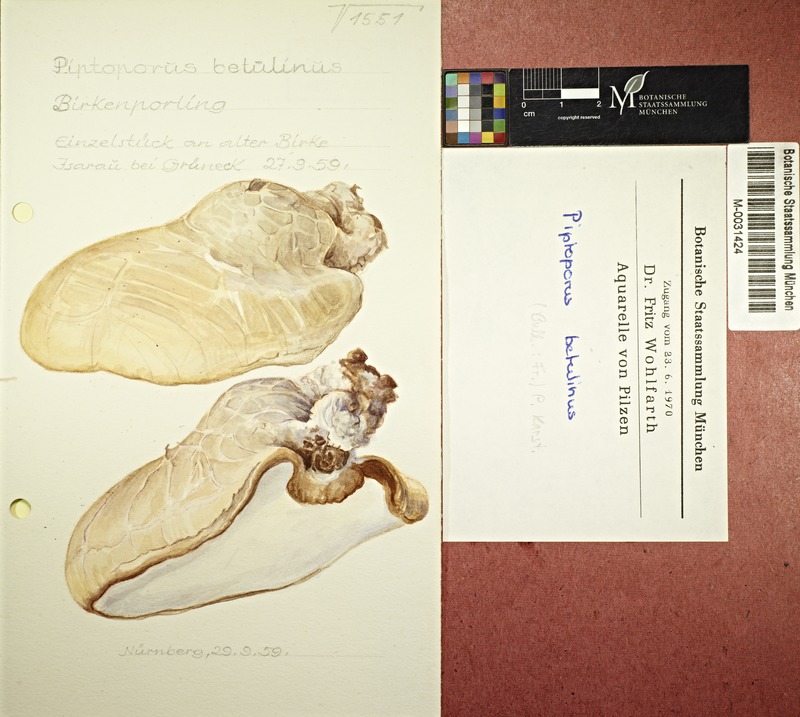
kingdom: Fungi
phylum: Basidiomycota
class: Agaricomycetes
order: Polyporales
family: Fomitopsidaceae
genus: Fomitopsis
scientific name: Fomitopsis betulina
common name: Birch polypore
